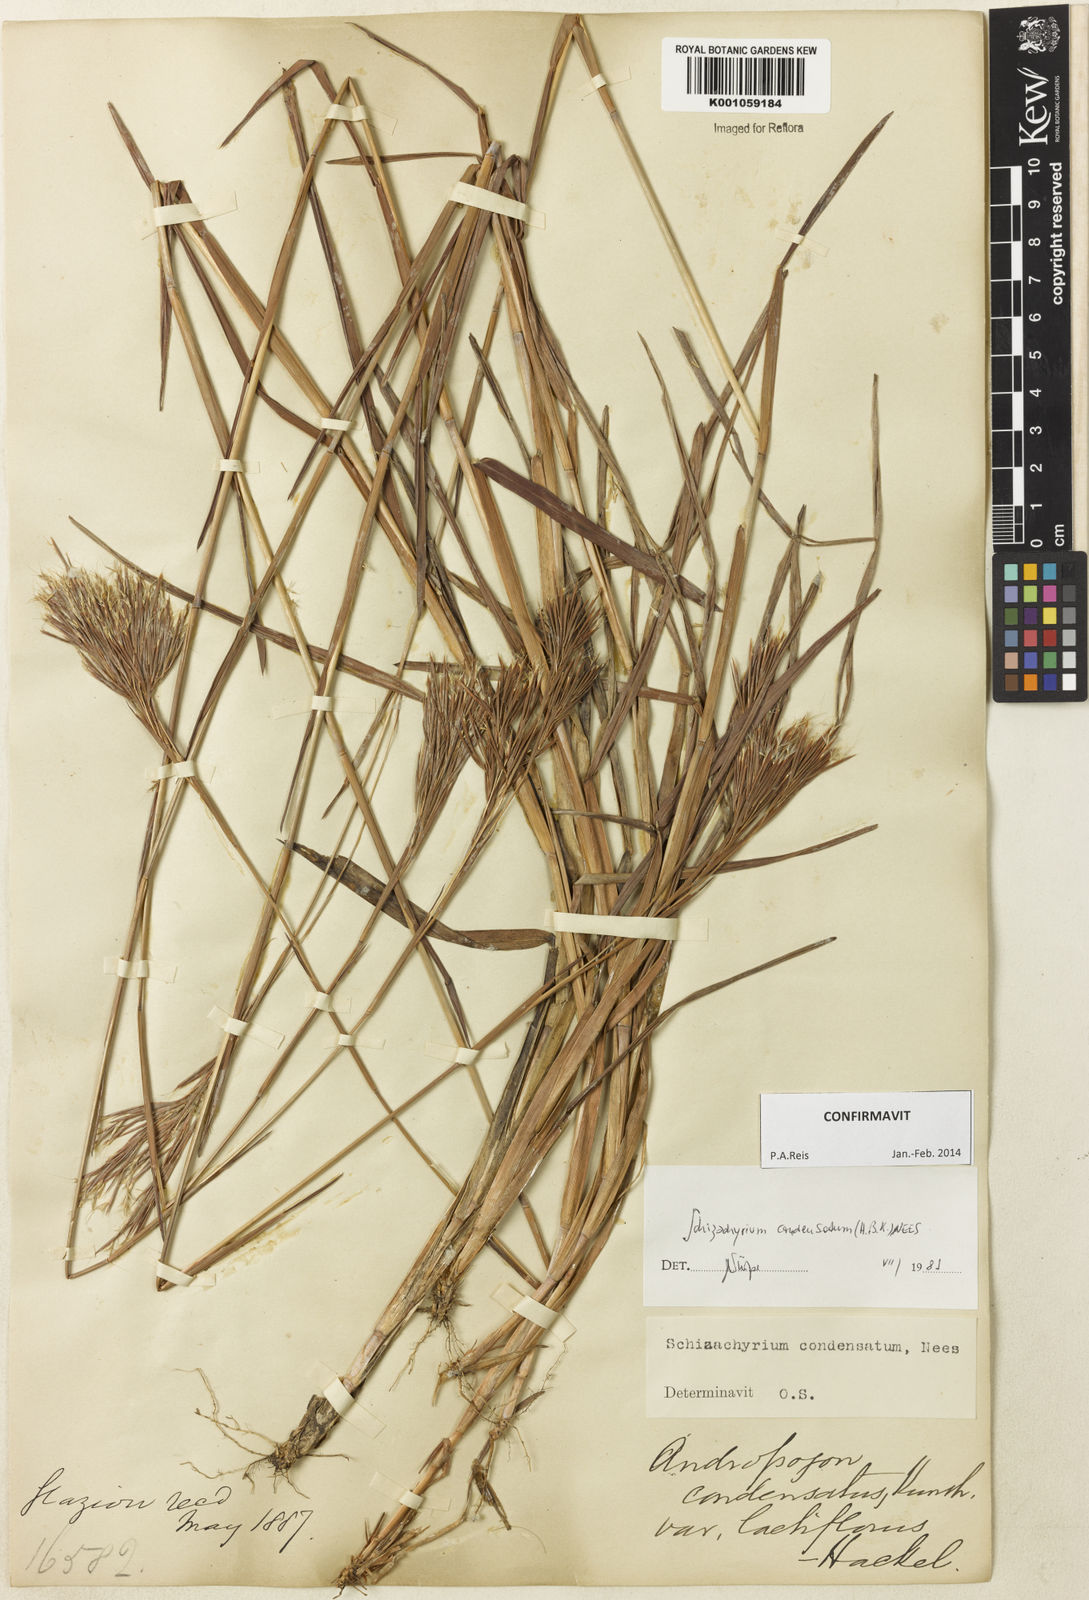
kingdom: Plantae
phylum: Tracheophyta
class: Liliopsida
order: Poales
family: Poaceae
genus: Schizachyrium
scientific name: Schizachyrium condensatum
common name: Bush beardgrass
